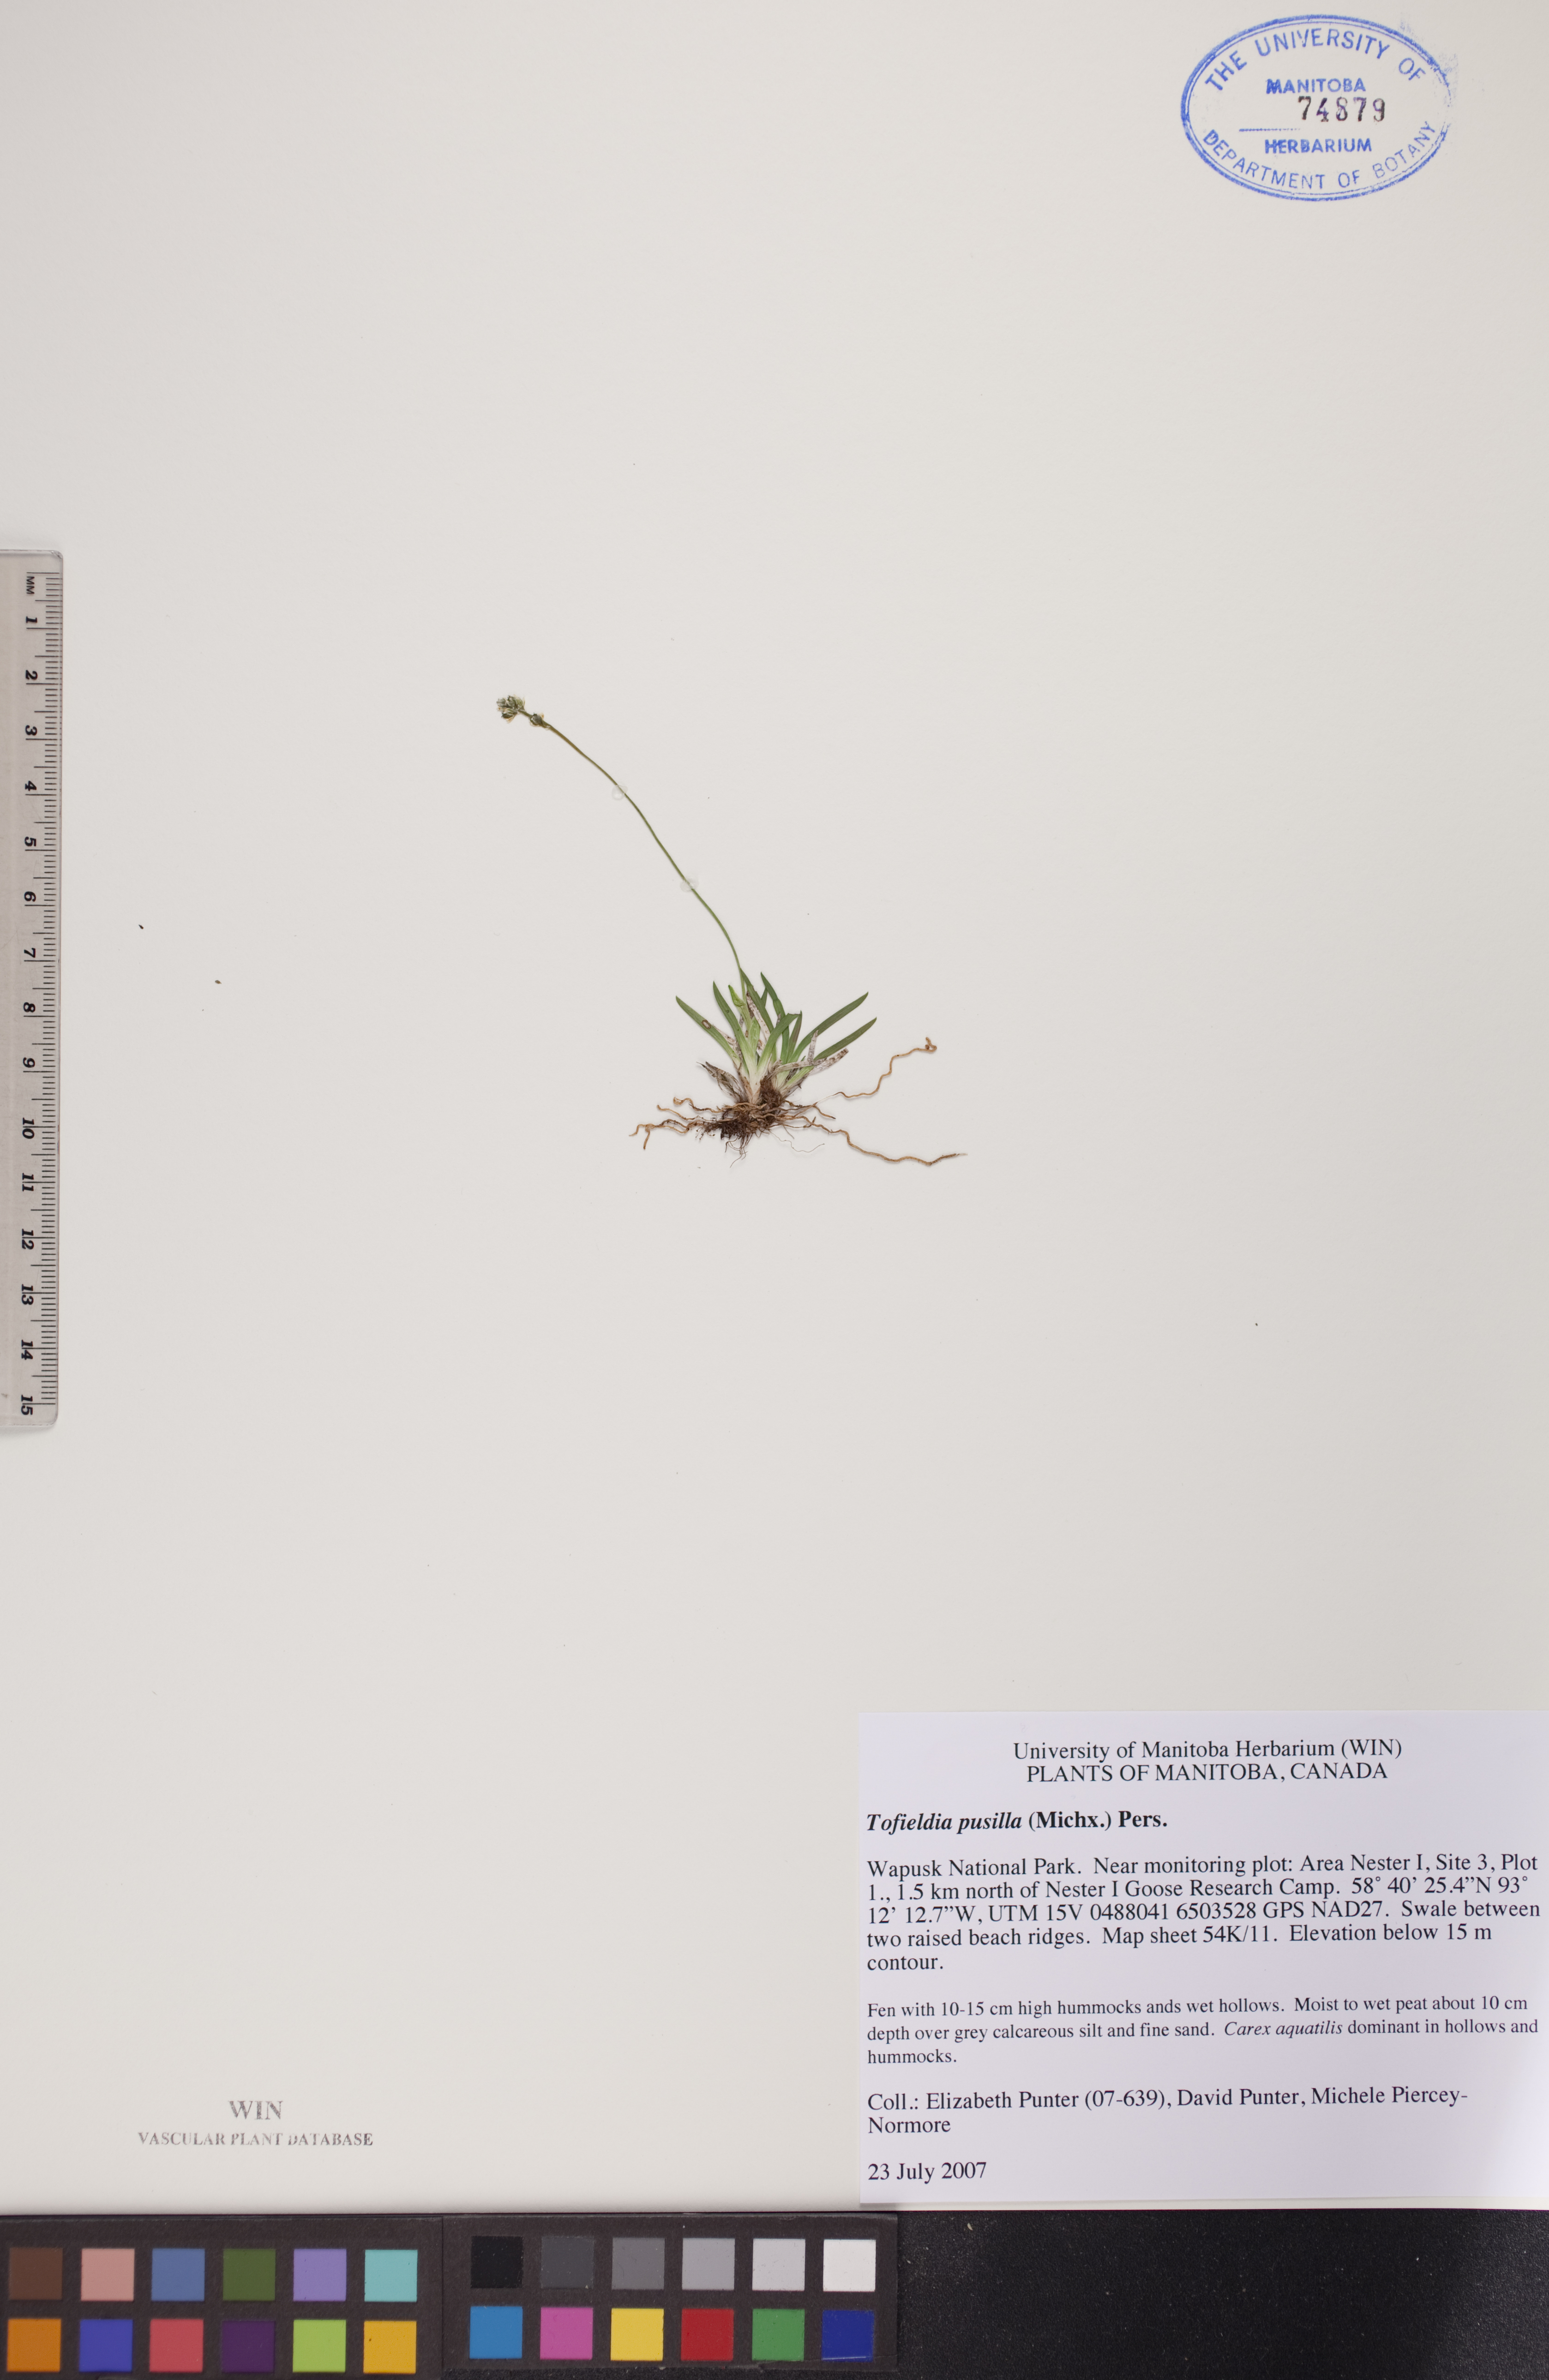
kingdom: Plantae
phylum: Tracheophyta
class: Liliopsida
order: Alismatales
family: Tofieldiaceae
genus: Tofieldia
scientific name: Tofieldia pusilla
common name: Scottish false asphodel
